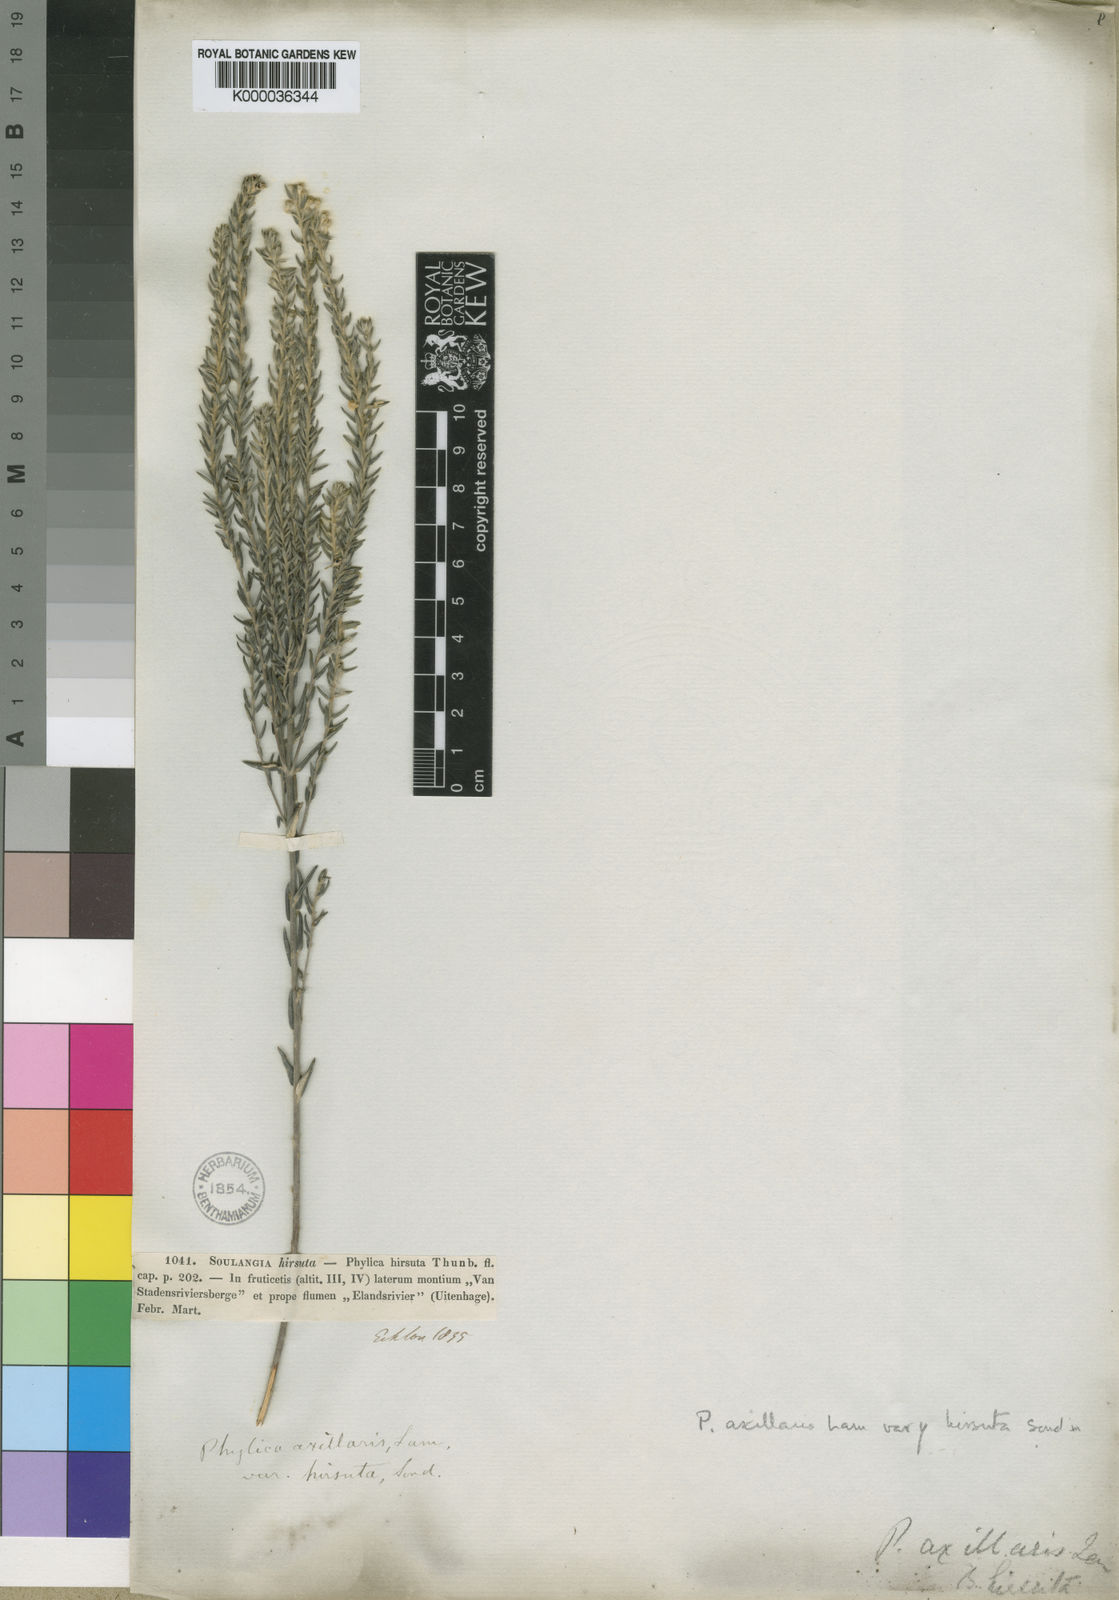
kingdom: Plantae
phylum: Tracheophyta
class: Magnoliopsida
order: Rosales
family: Rhamnaceae
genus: Phylica
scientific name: Phylica axillaris
